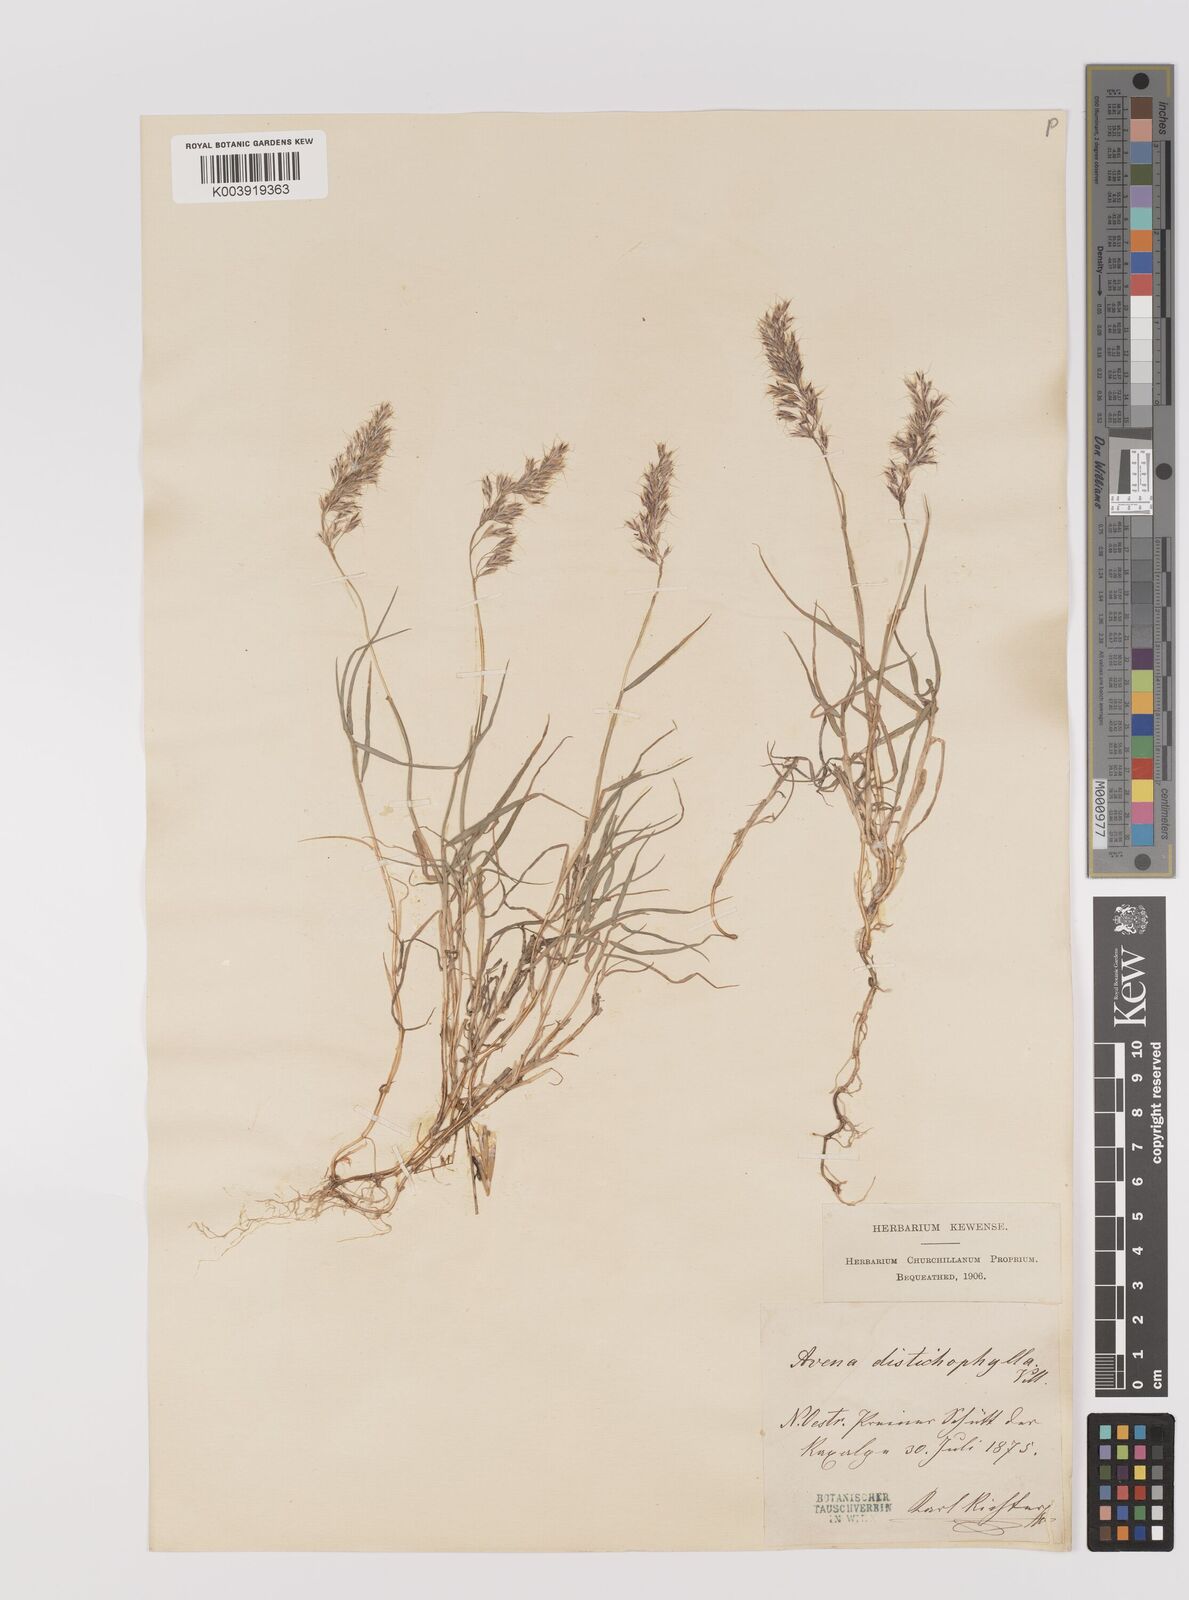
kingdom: Plantae
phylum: Tracheophyta
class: Liliopsida
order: Poales
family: Poaceae
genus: Acrospelion
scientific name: Acrospelion distichophyllum
